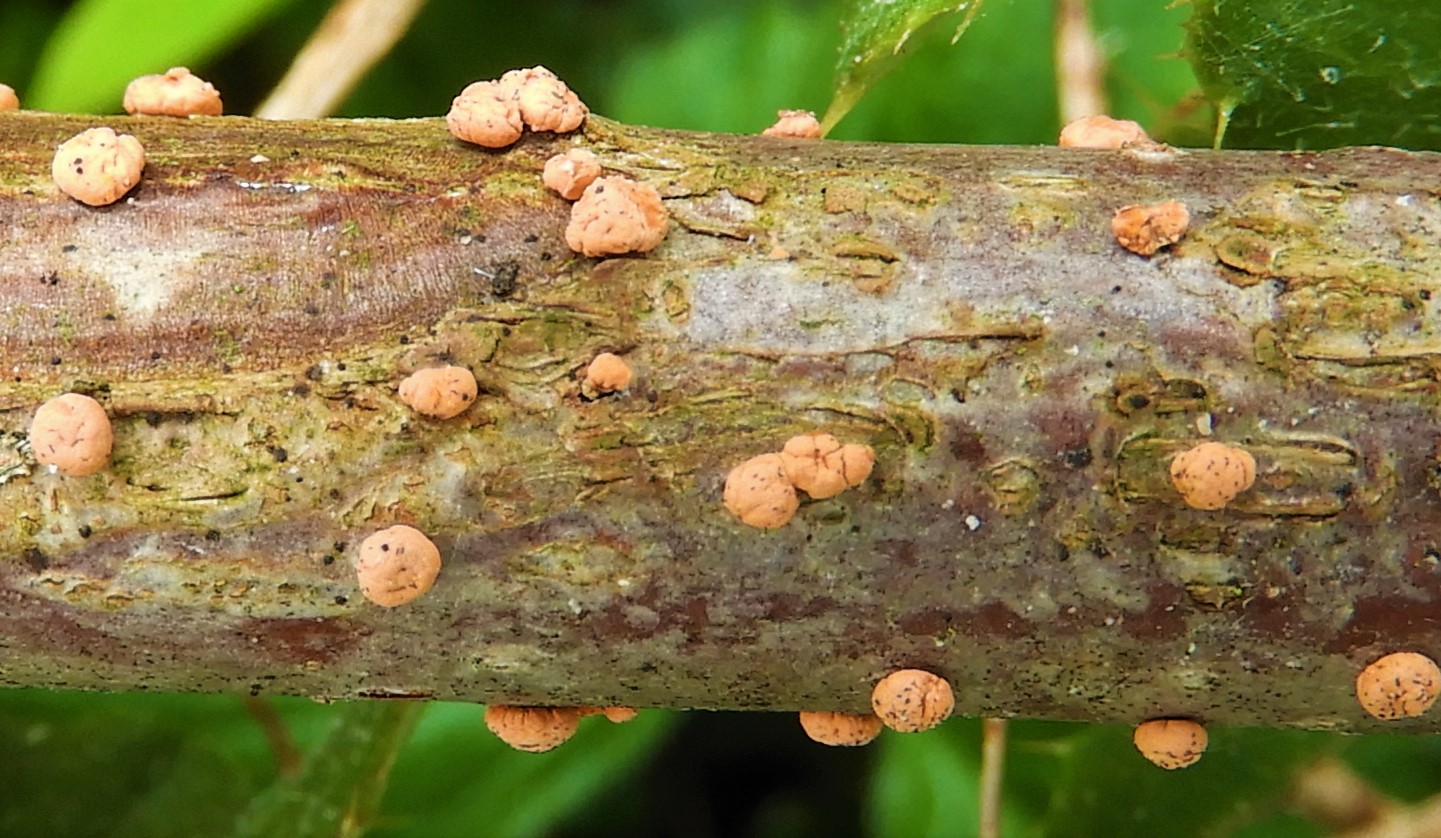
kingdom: Fungi
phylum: Ascomycota
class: Sordariomycetes
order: Hypocreales
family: Nectriaceae
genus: Nectria
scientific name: Nectria cinnabarina
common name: almindelig cinnobersvamp
